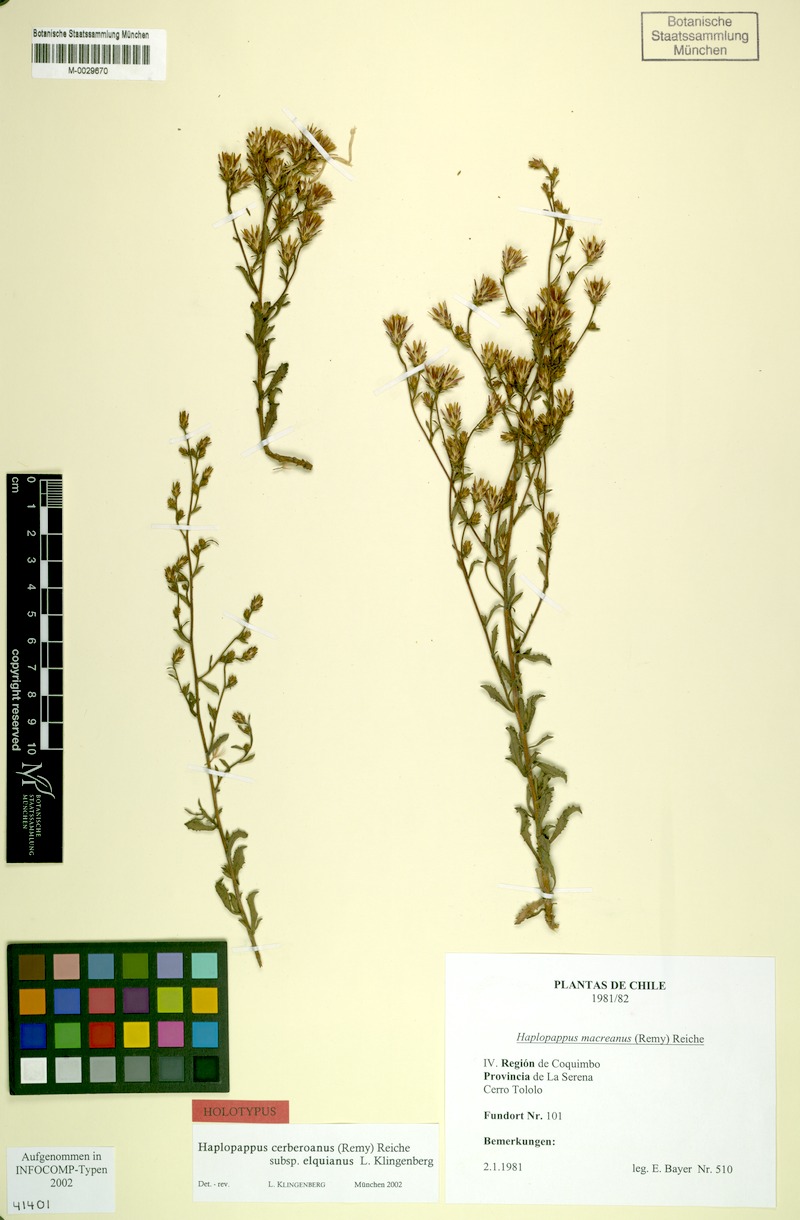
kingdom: Plantae
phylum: Tracheophyta
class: Magnoliopsida
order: Asterales
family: Asteraceae
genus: Haplopappus
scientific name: Haplopappus cerberoanus
